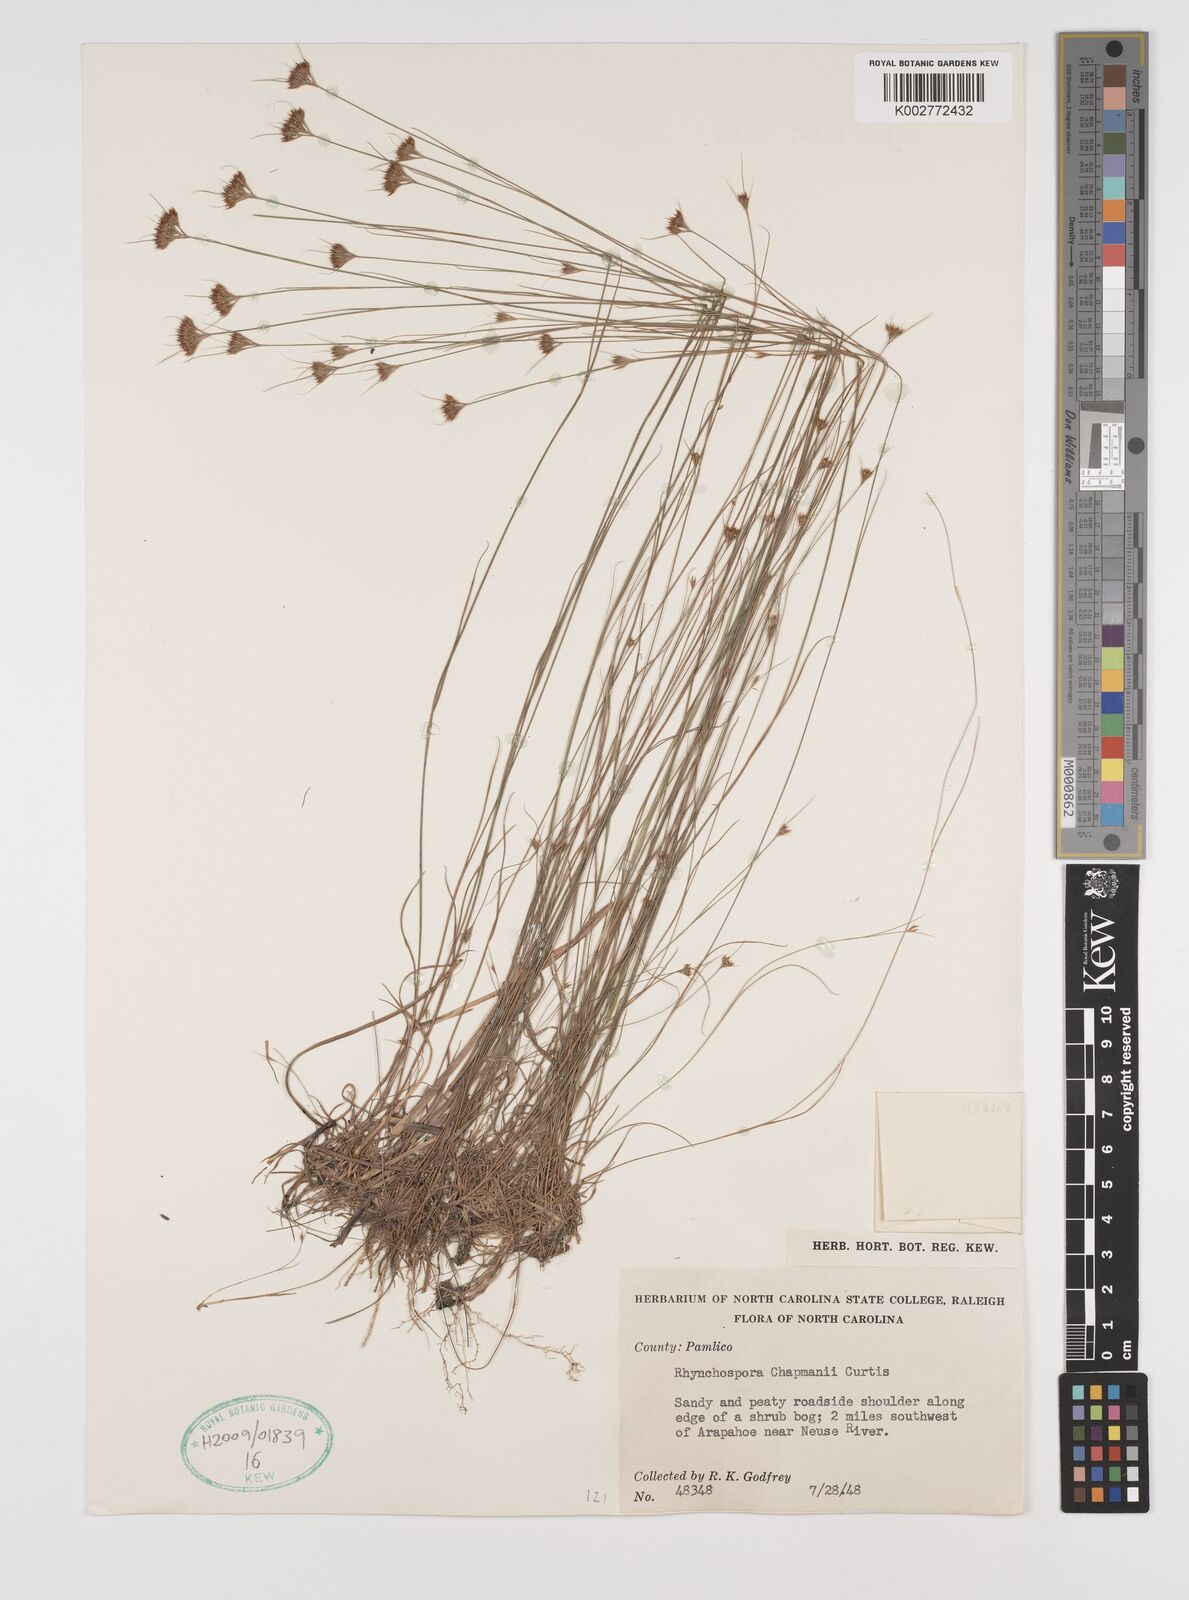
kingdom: Plantae
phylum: Tracheophyta
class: Liliopsida
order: Poales
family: Cyperaceae
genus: Rhynchospora
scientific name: Rhynchospora
